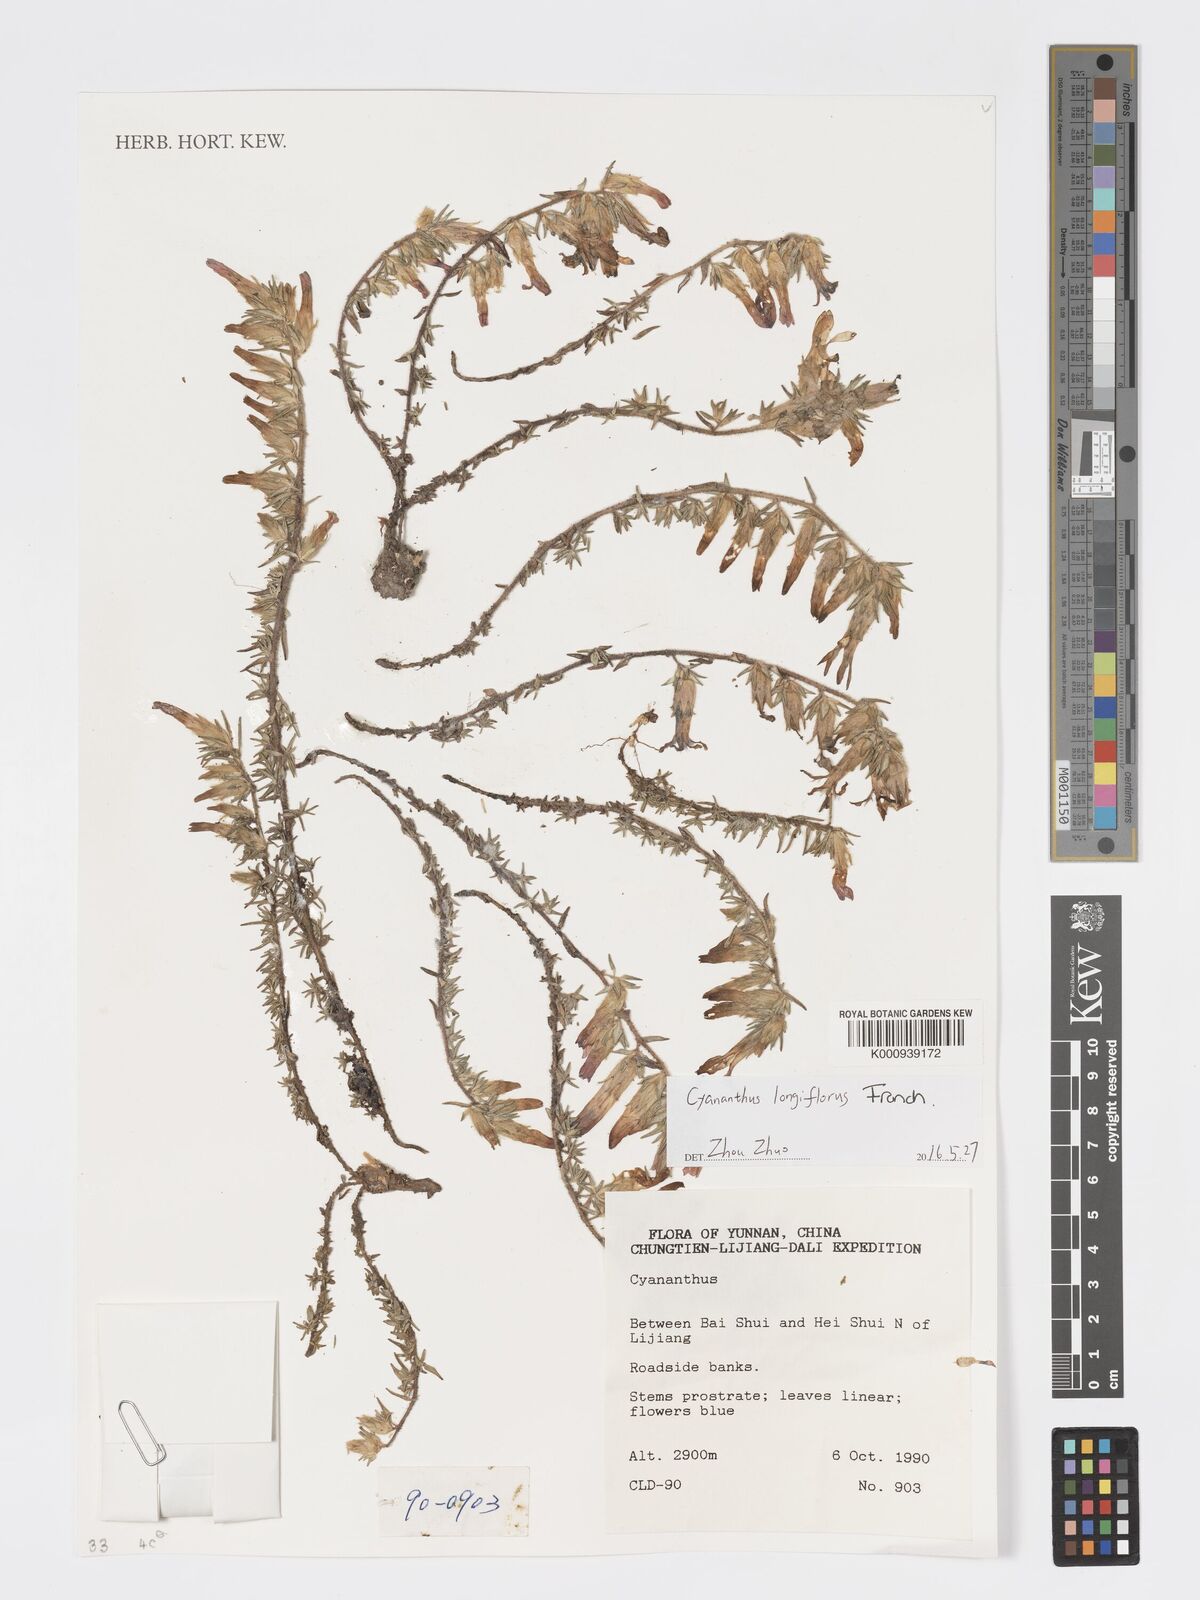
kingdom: Plantae
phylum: Tracheophyta
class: Magnoliopsida
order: Asterales
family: Campanulaceae
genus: Cyananthus
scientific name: Cyananthus longiflorus
